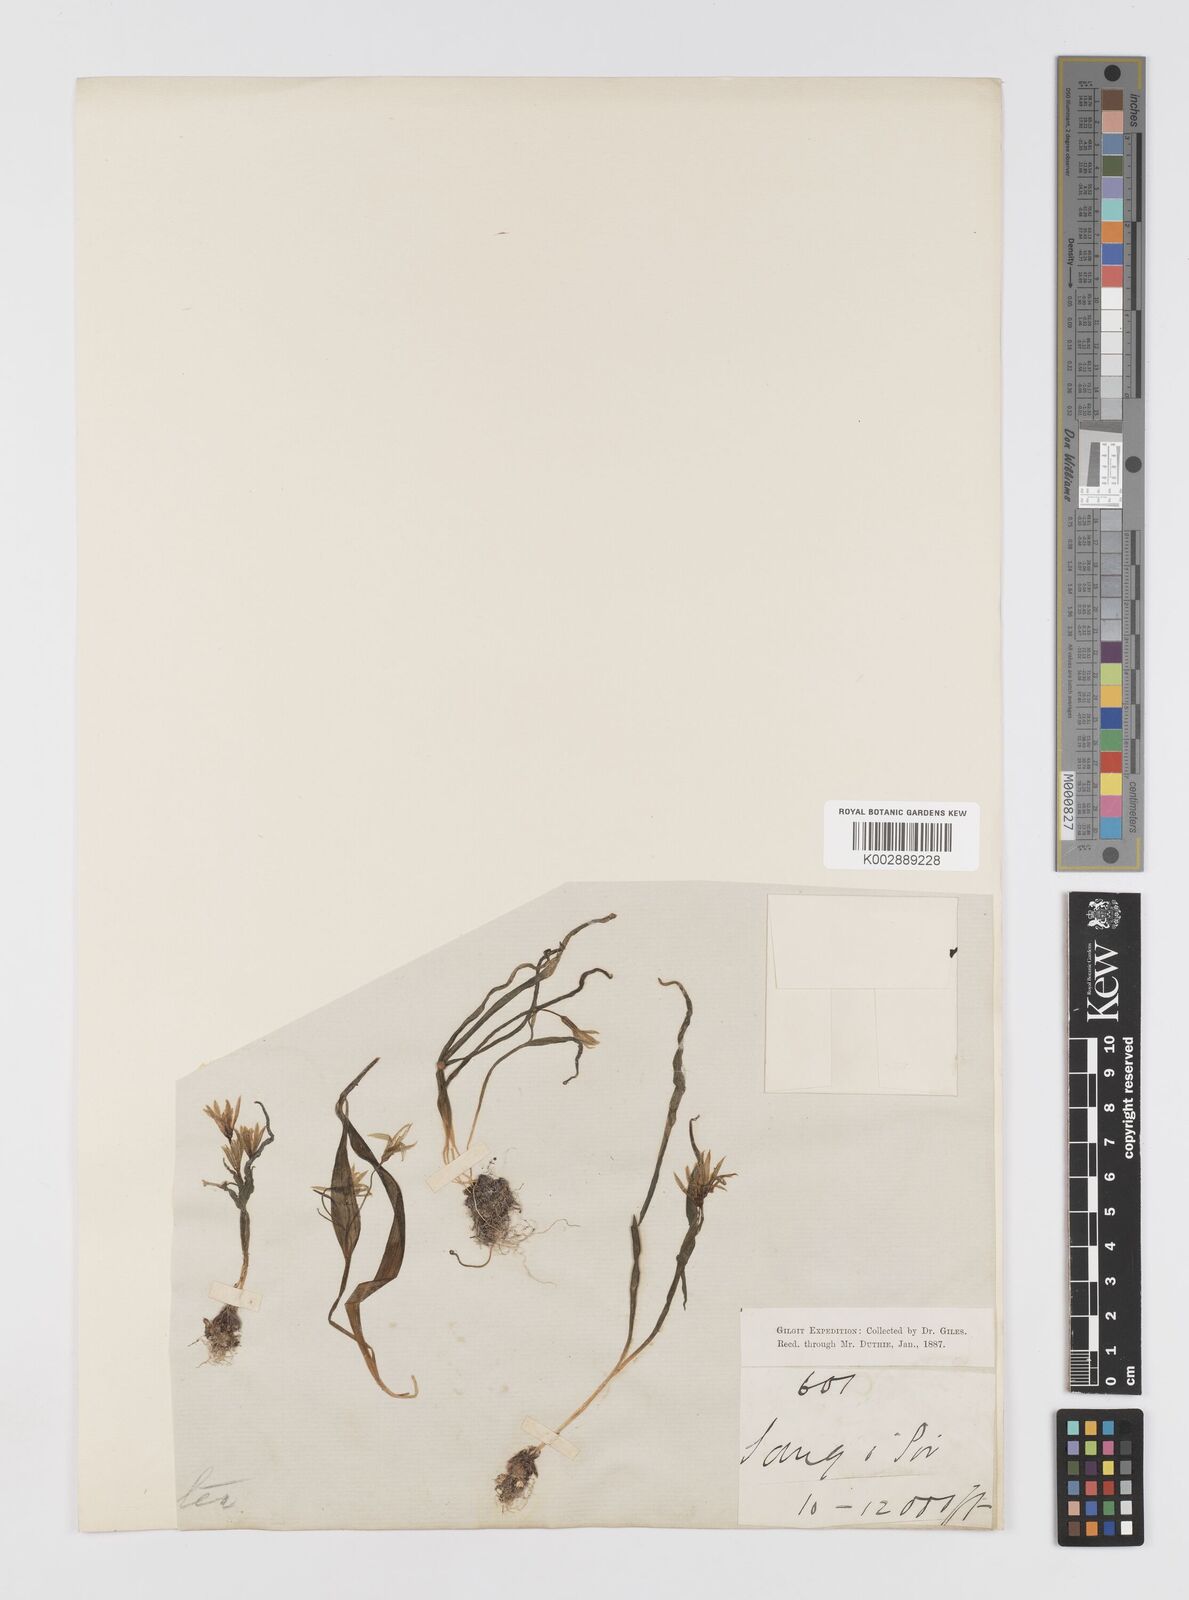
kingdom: Plantae
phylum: Tracheophyta
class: Liliopsida
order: Liliales
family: Liliaceae
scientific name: Liliaceae
